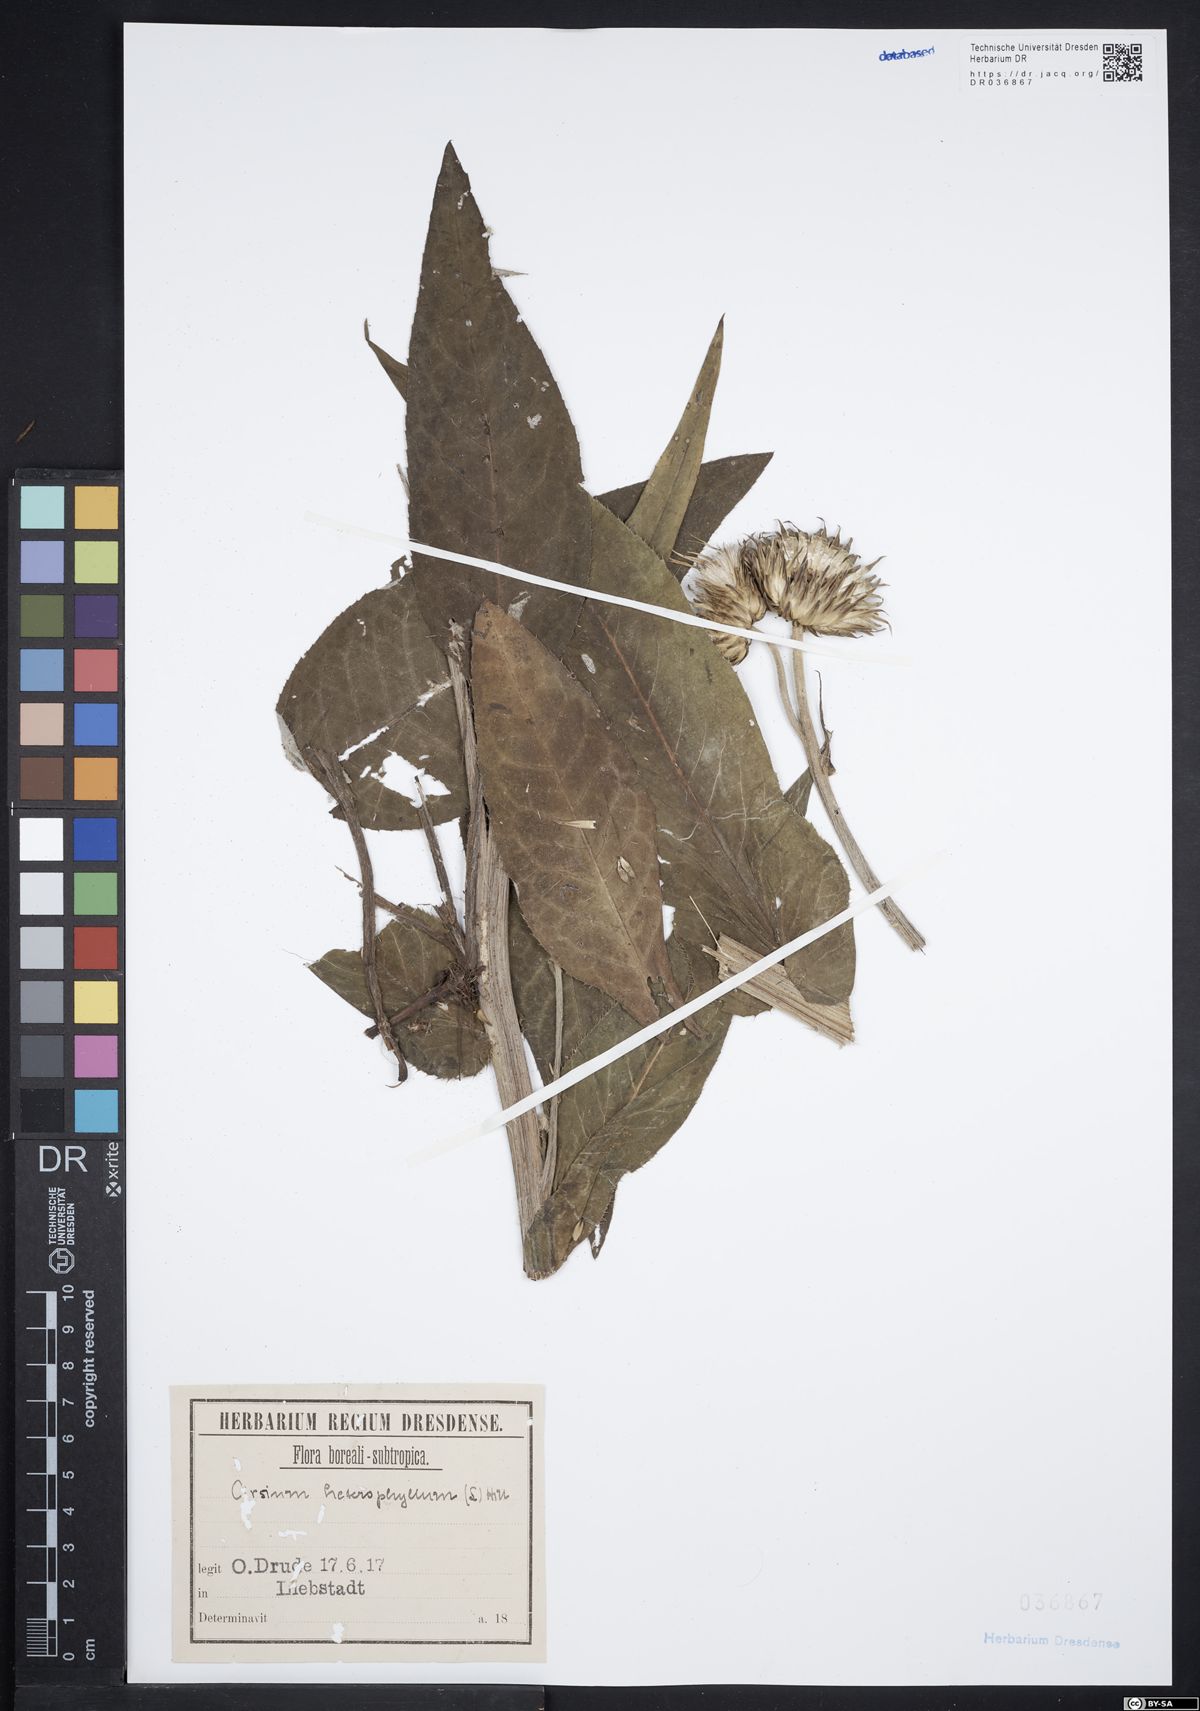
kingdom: Plantae
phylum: Tracheophyta
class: Magnoliopsida
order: Asterales
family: Asteraceae
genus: Cirsium
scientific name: Cirsium helenioides
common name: Melancholy thistle
